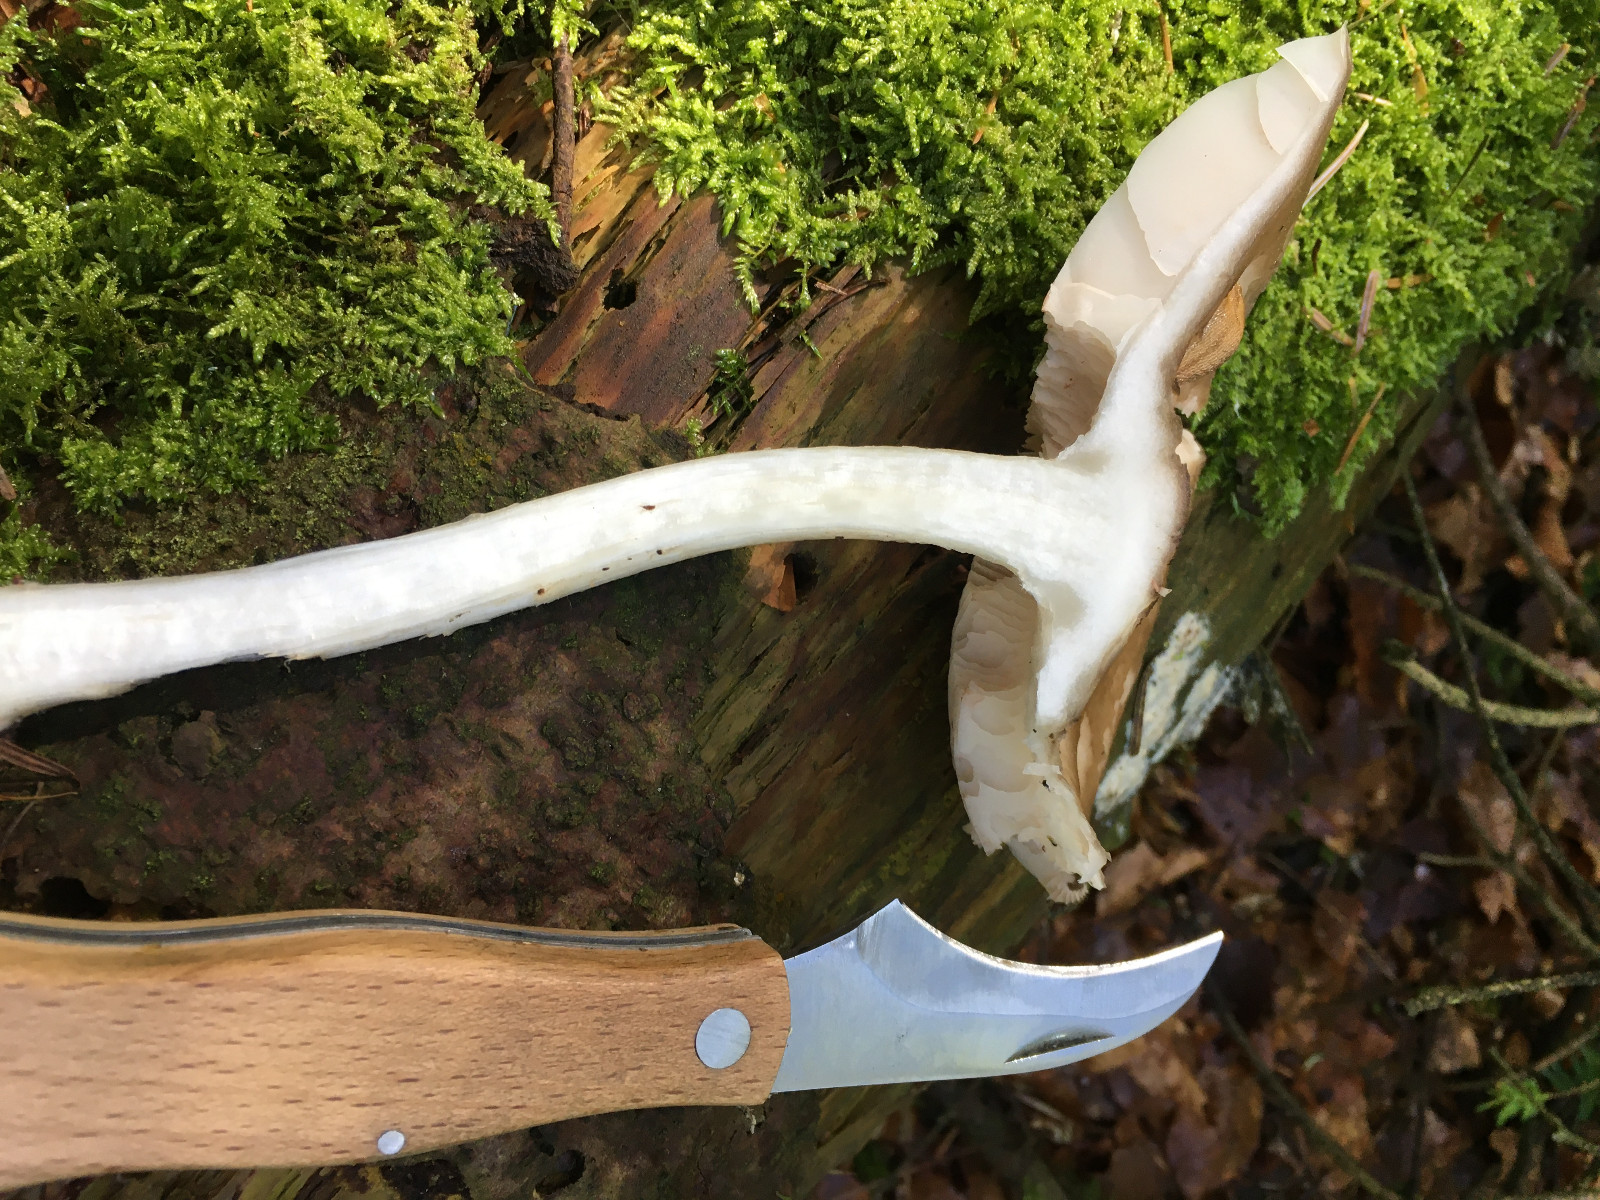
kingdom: Fungi
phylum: Basidiomycota
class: Agaricomycetes
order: Agaricales
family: Pluteaceae
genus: Pluteus
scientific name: Pluteus
